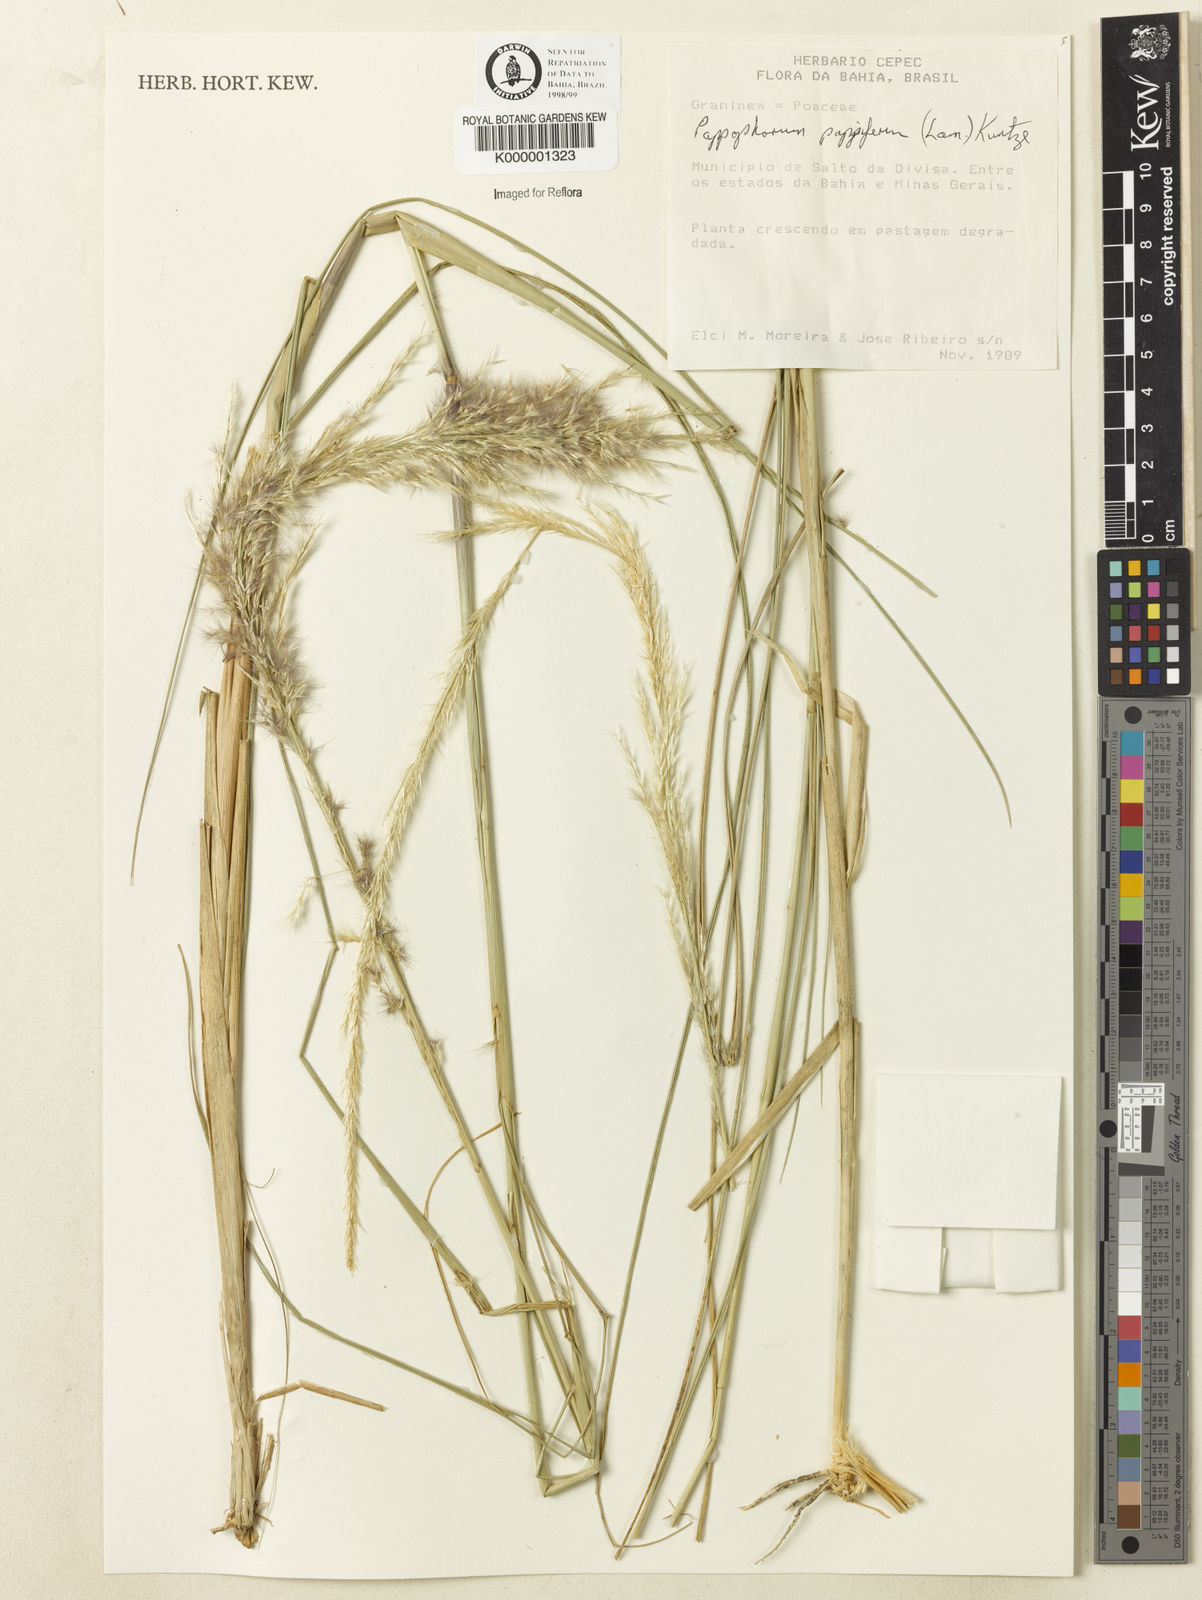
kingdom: Plantae
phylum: Tracheophyta
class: Liliopsida
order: Poales
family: Poaceae
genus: Pappophorum
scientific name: Pappophorum pappiferum
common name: Crabgrass
